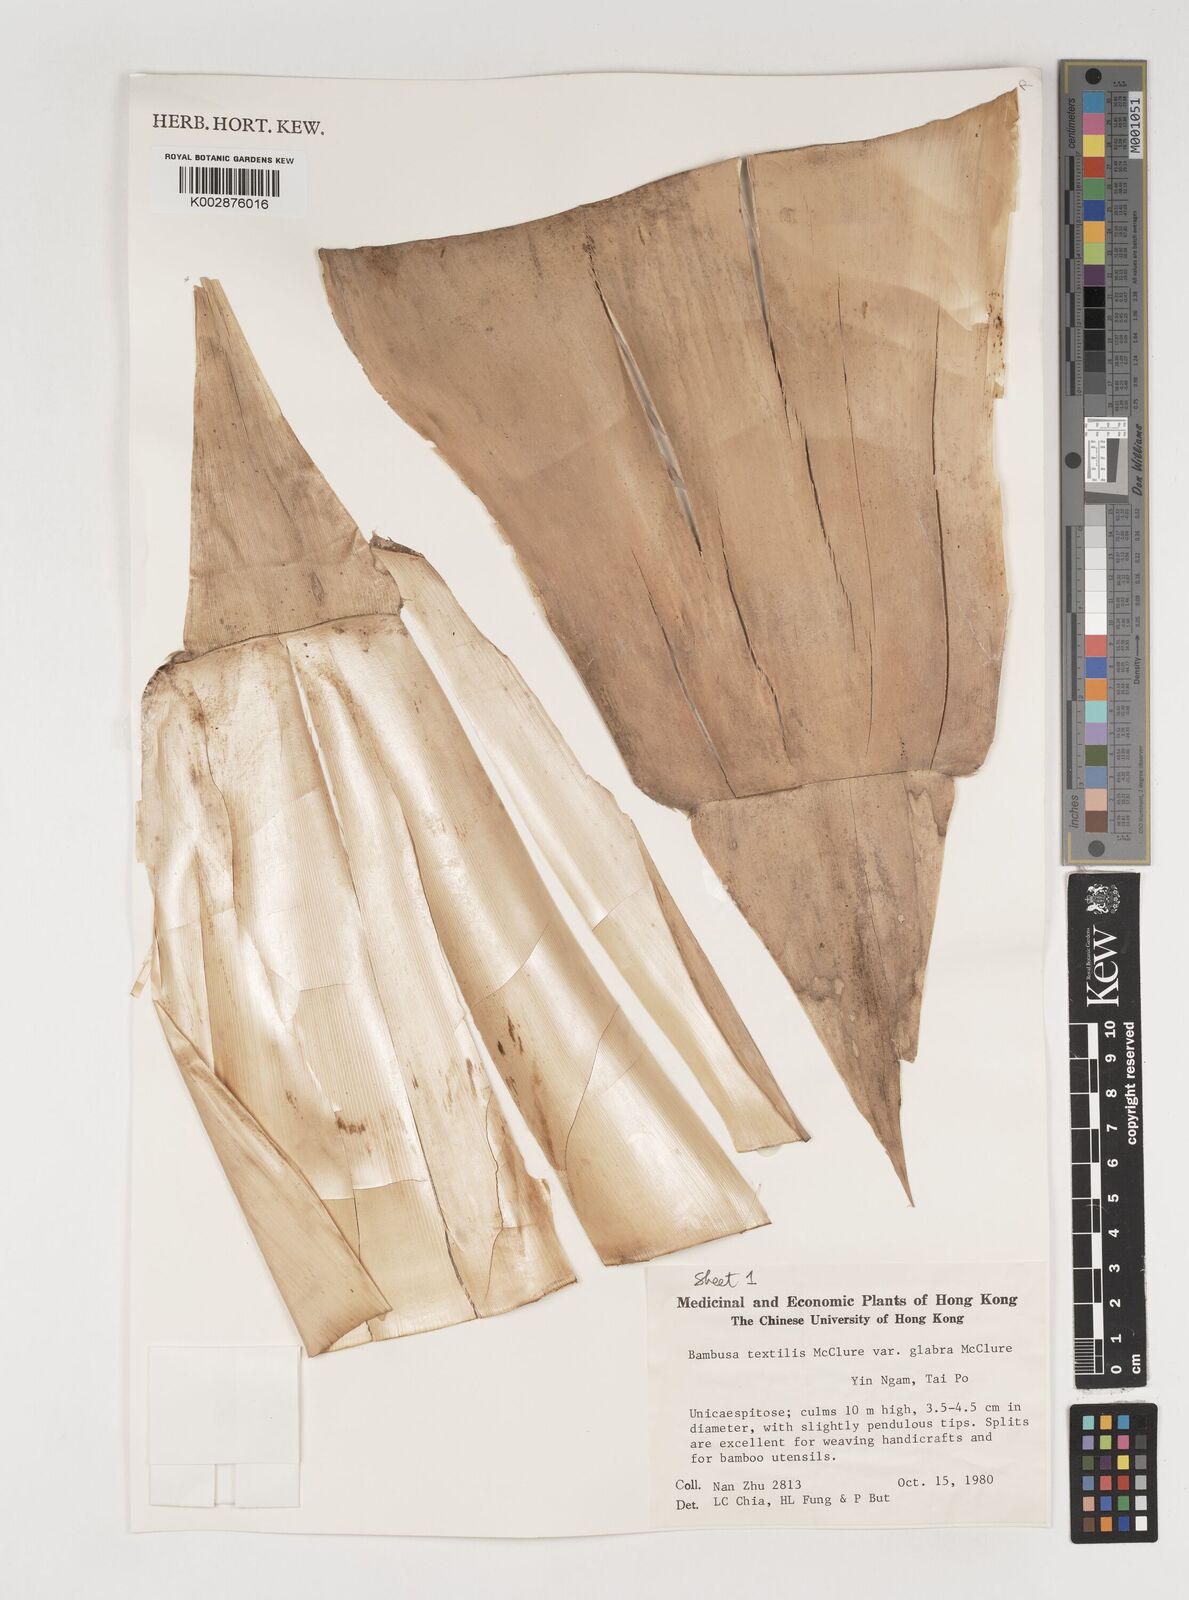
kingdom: Plantae
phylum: Tracheophyta
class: Liliopsida
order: Poales
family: Poaceae
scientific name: Poaceae
